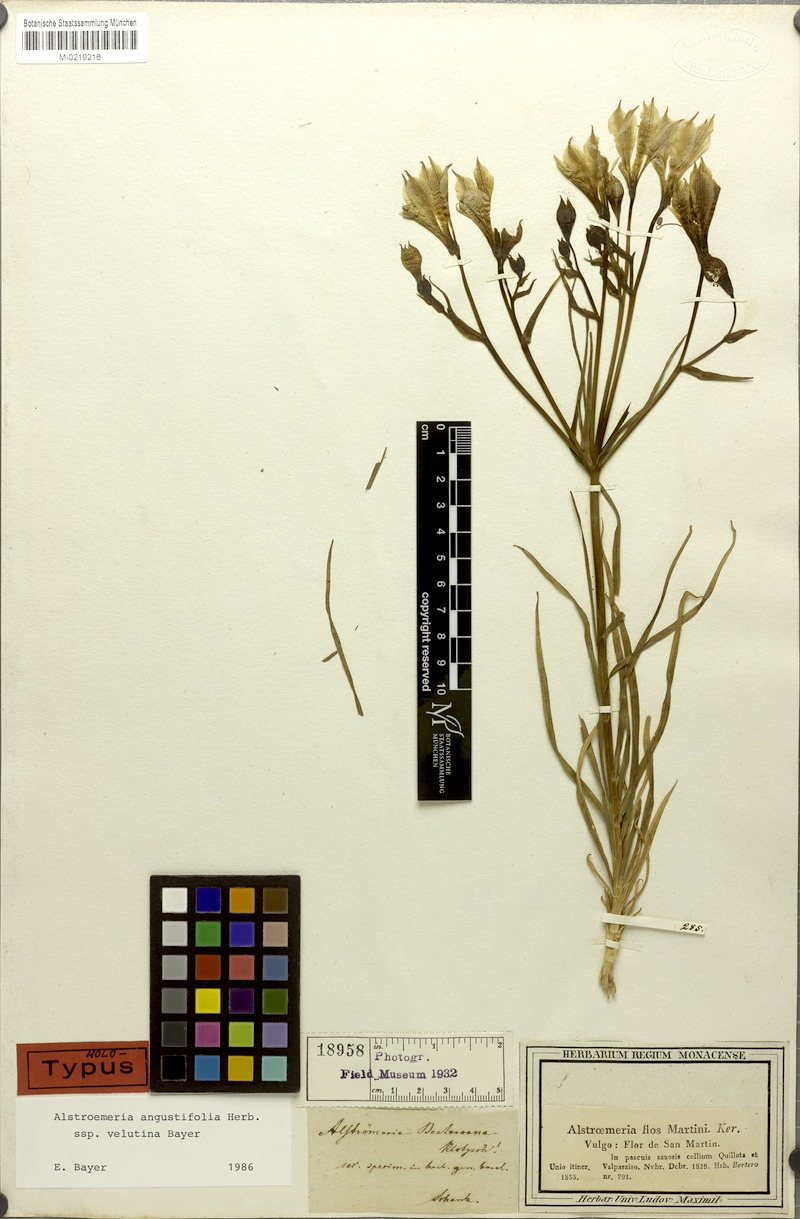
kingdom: Plantae
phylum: Tracheophyta
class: Liliopsida
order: Liliales
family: Alstroemeriaceae
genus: Alstroemeria
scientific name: Alstroemeria angustifolia
